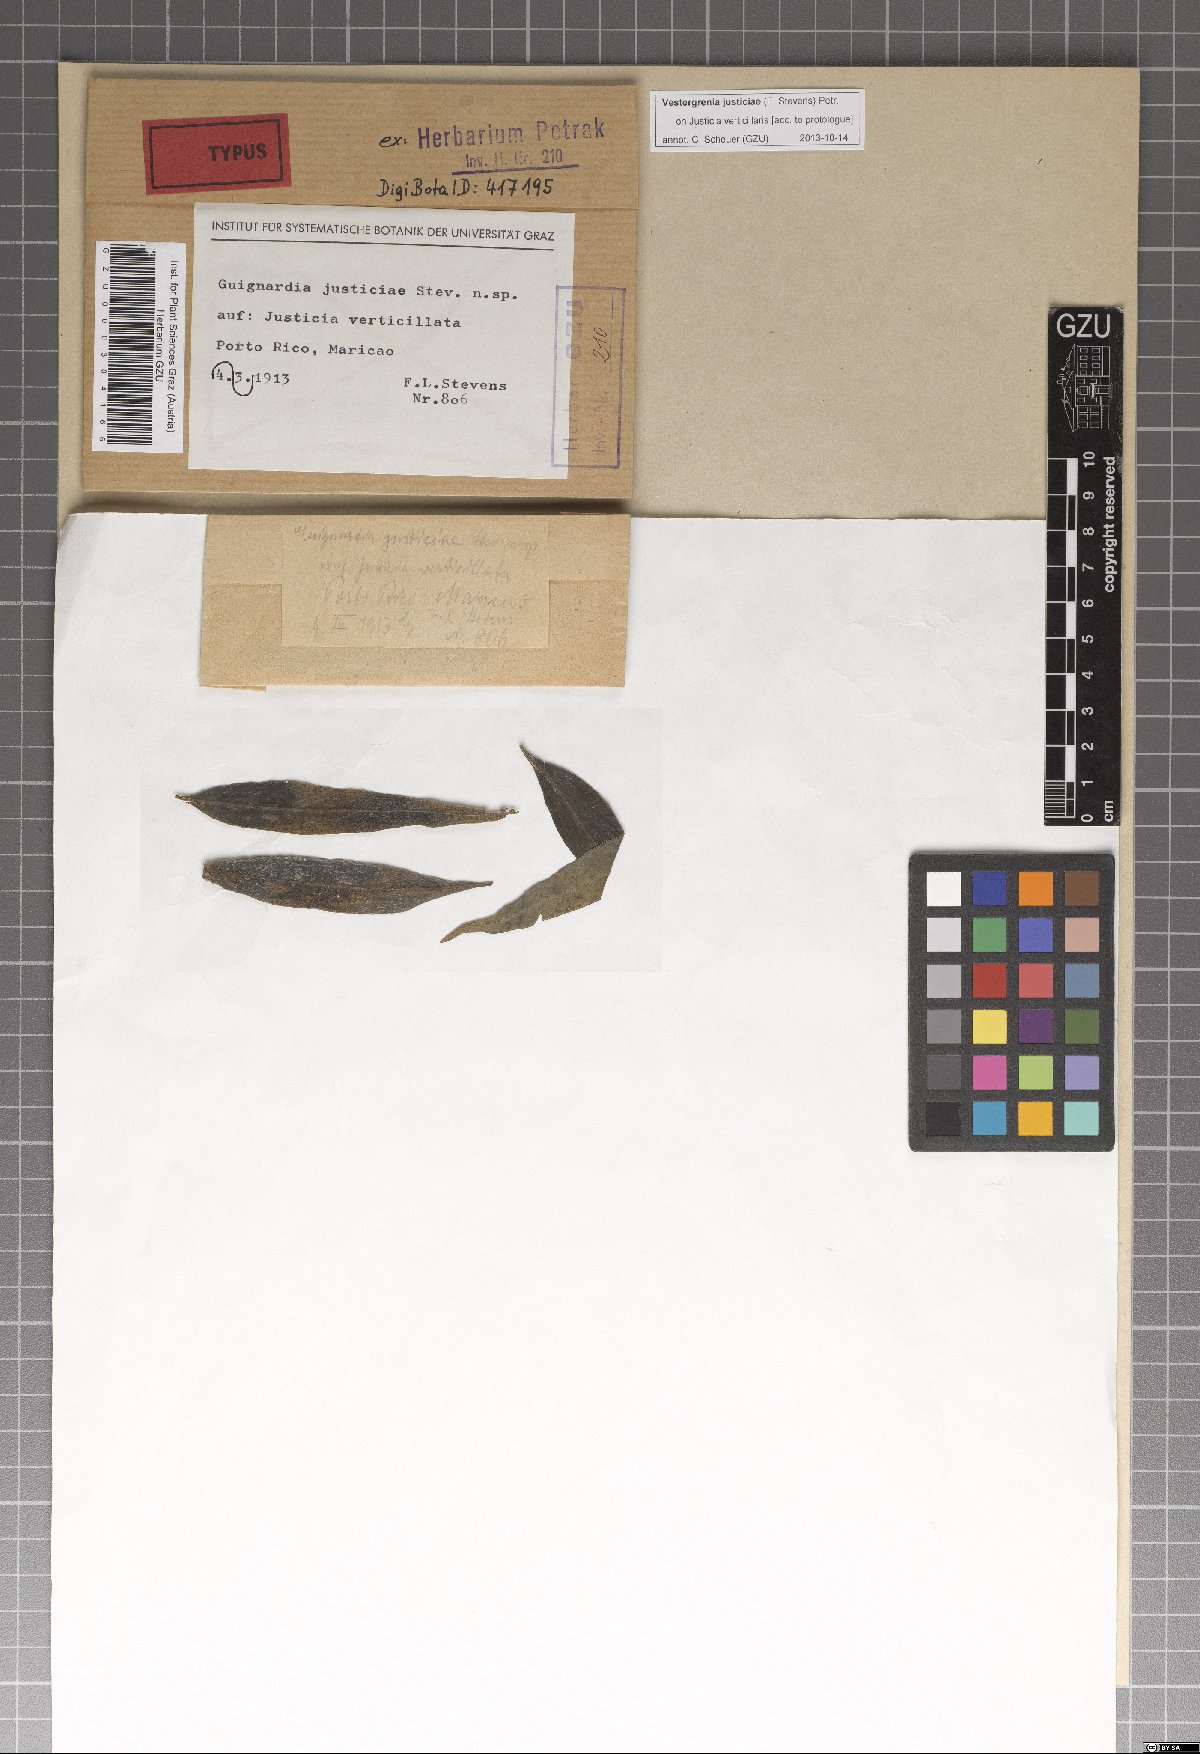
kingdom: Fungi
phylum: Ascomycota
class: Dothideomycetes
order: Dothideales
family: Dothideaceae
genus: Vestergrenia
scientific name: Vestergrenia justiciae
